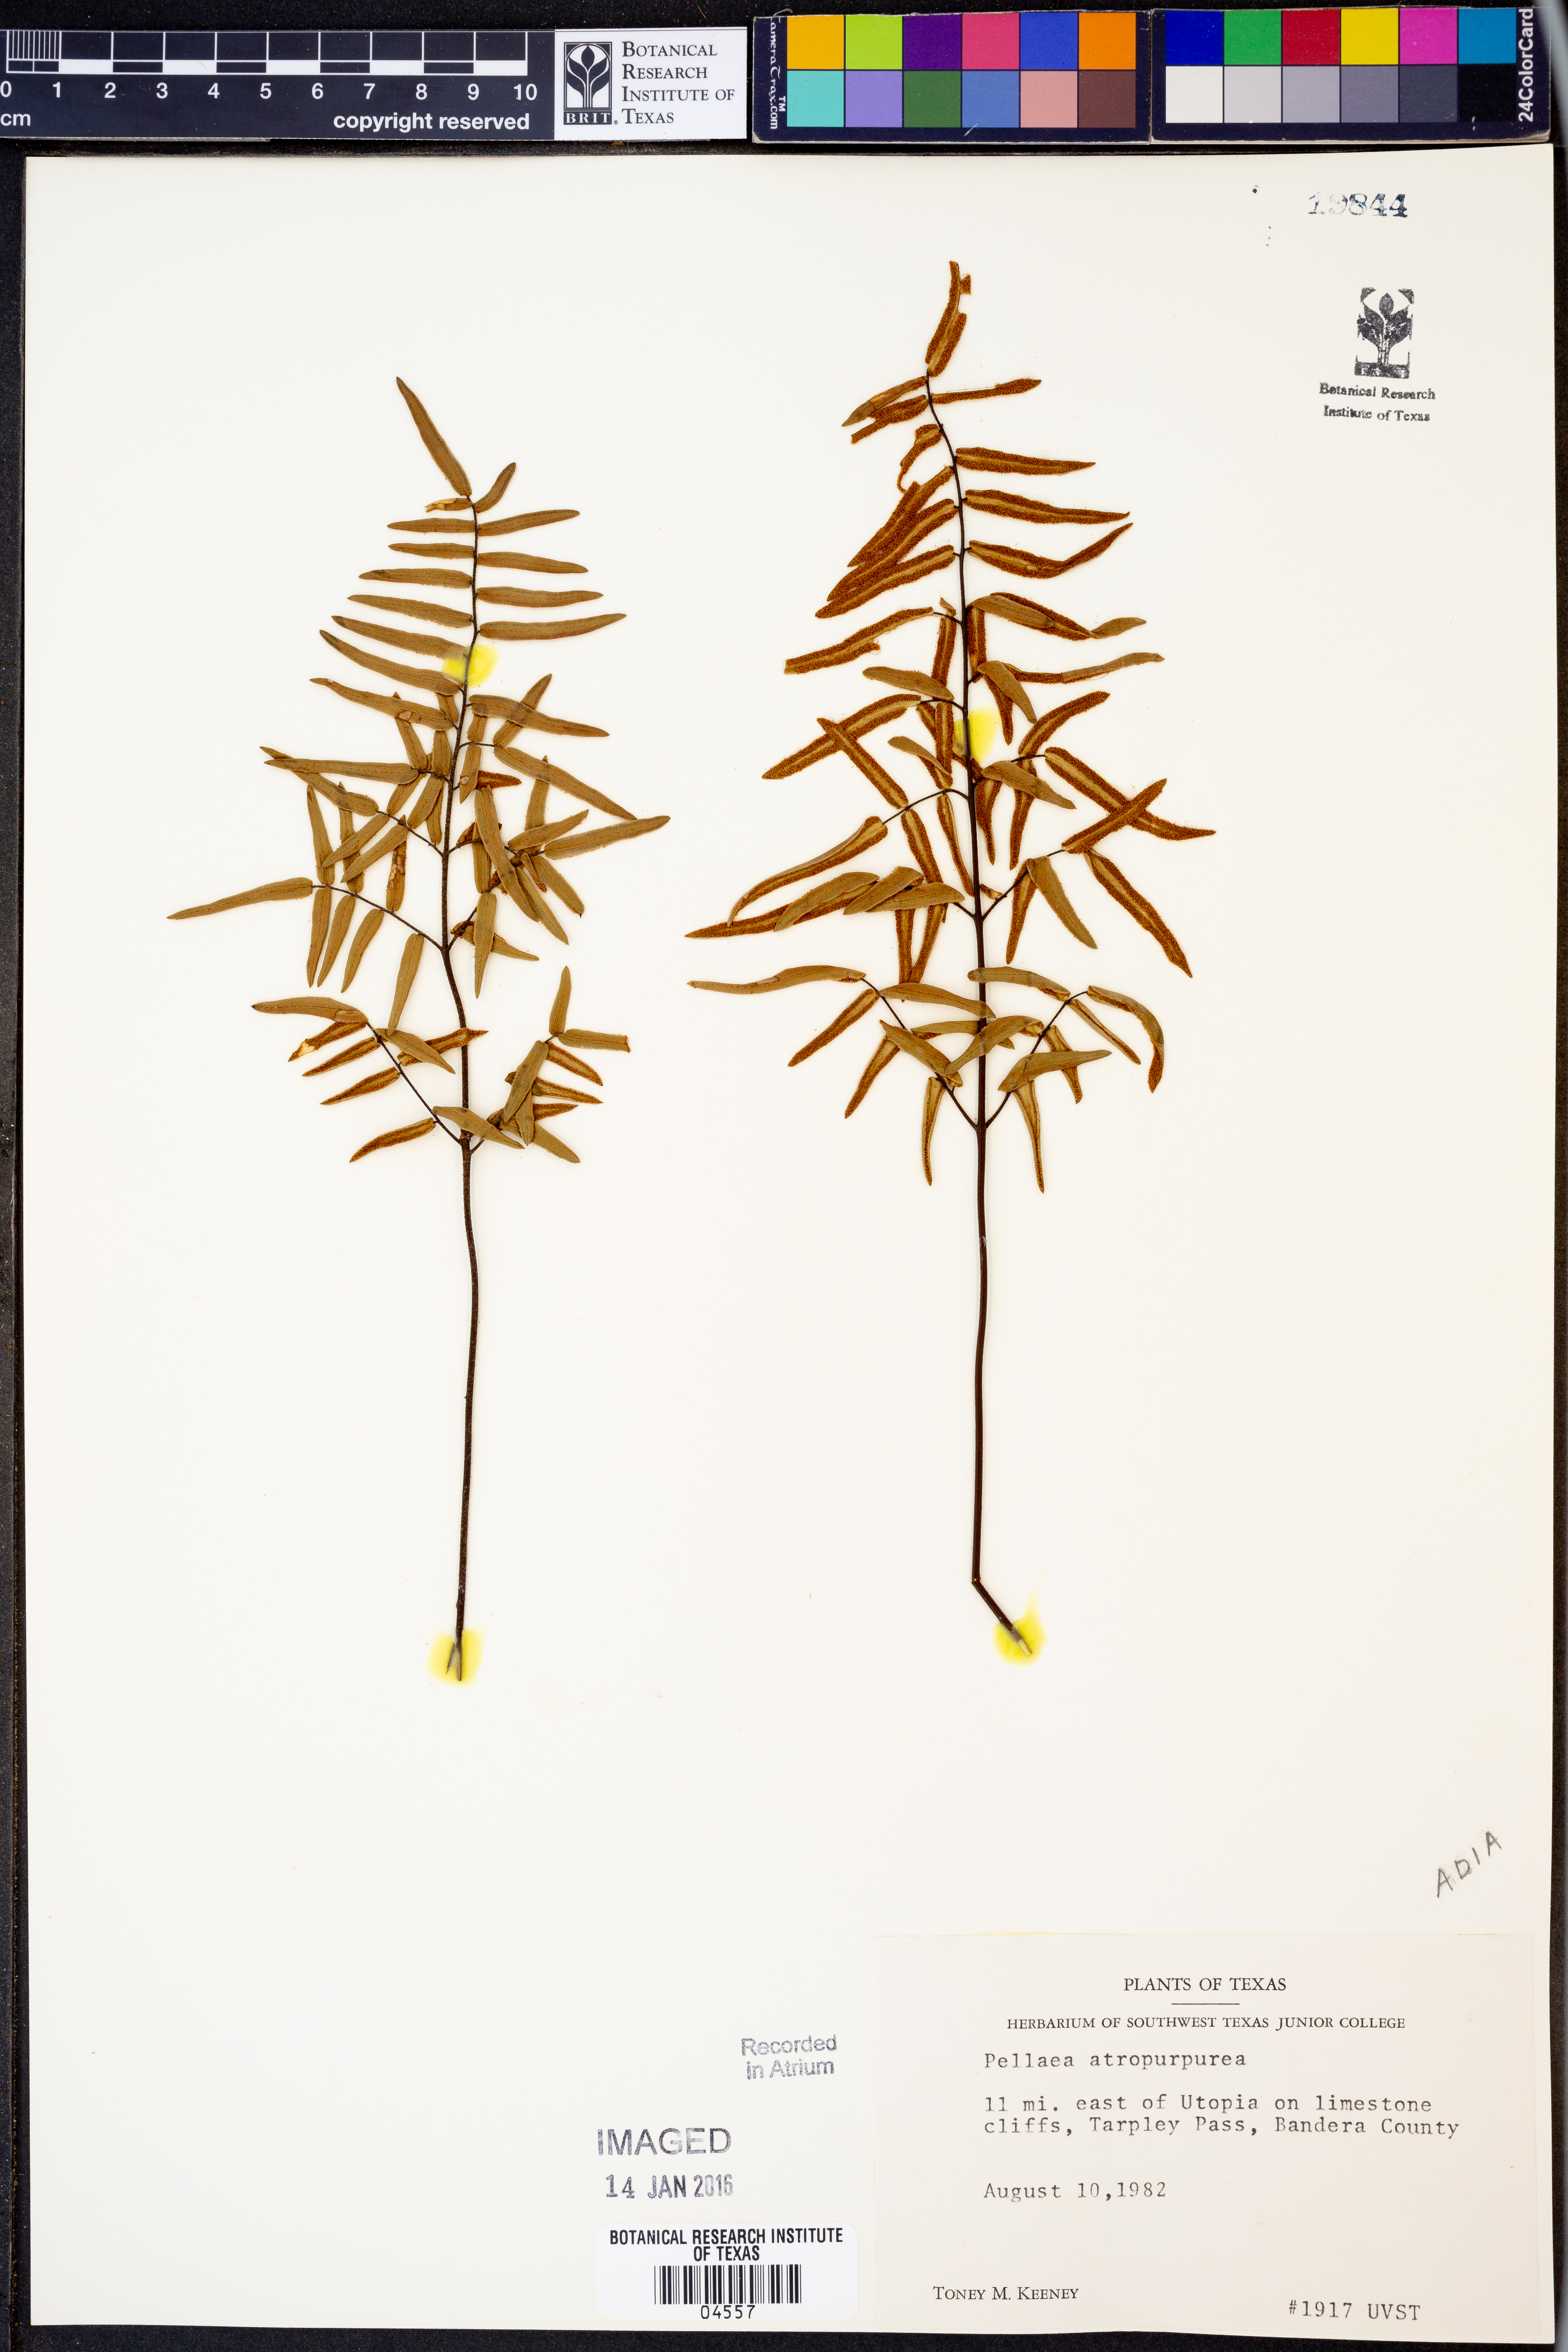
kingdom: Plantae
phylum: Tracheophyta
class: Polypodiopsida
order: Polypodiales
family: Pteridaceae
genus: Pellaea
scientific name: Pellaea atropurpurea
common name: Hairy cliffbrake
